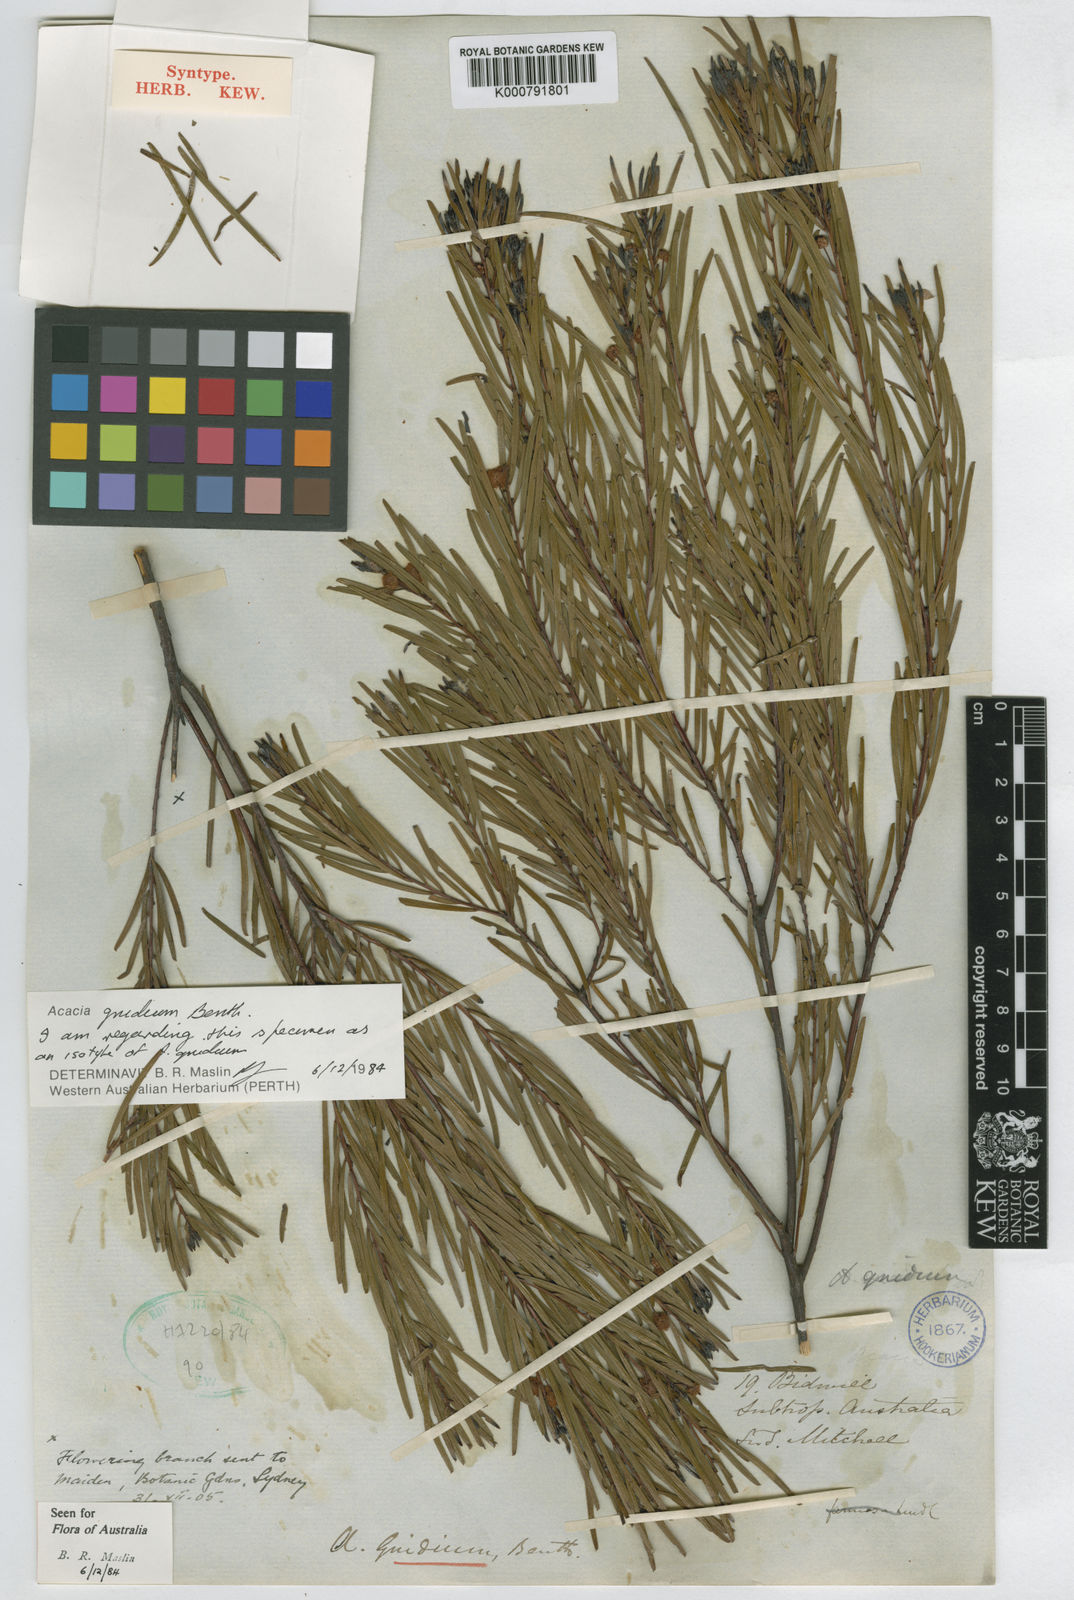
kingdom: Plantae
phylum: Tracheophyta
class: Magnoliopsida
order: Fabales
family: Fabaceae
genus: Acacia
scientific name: Acacia gnidium
